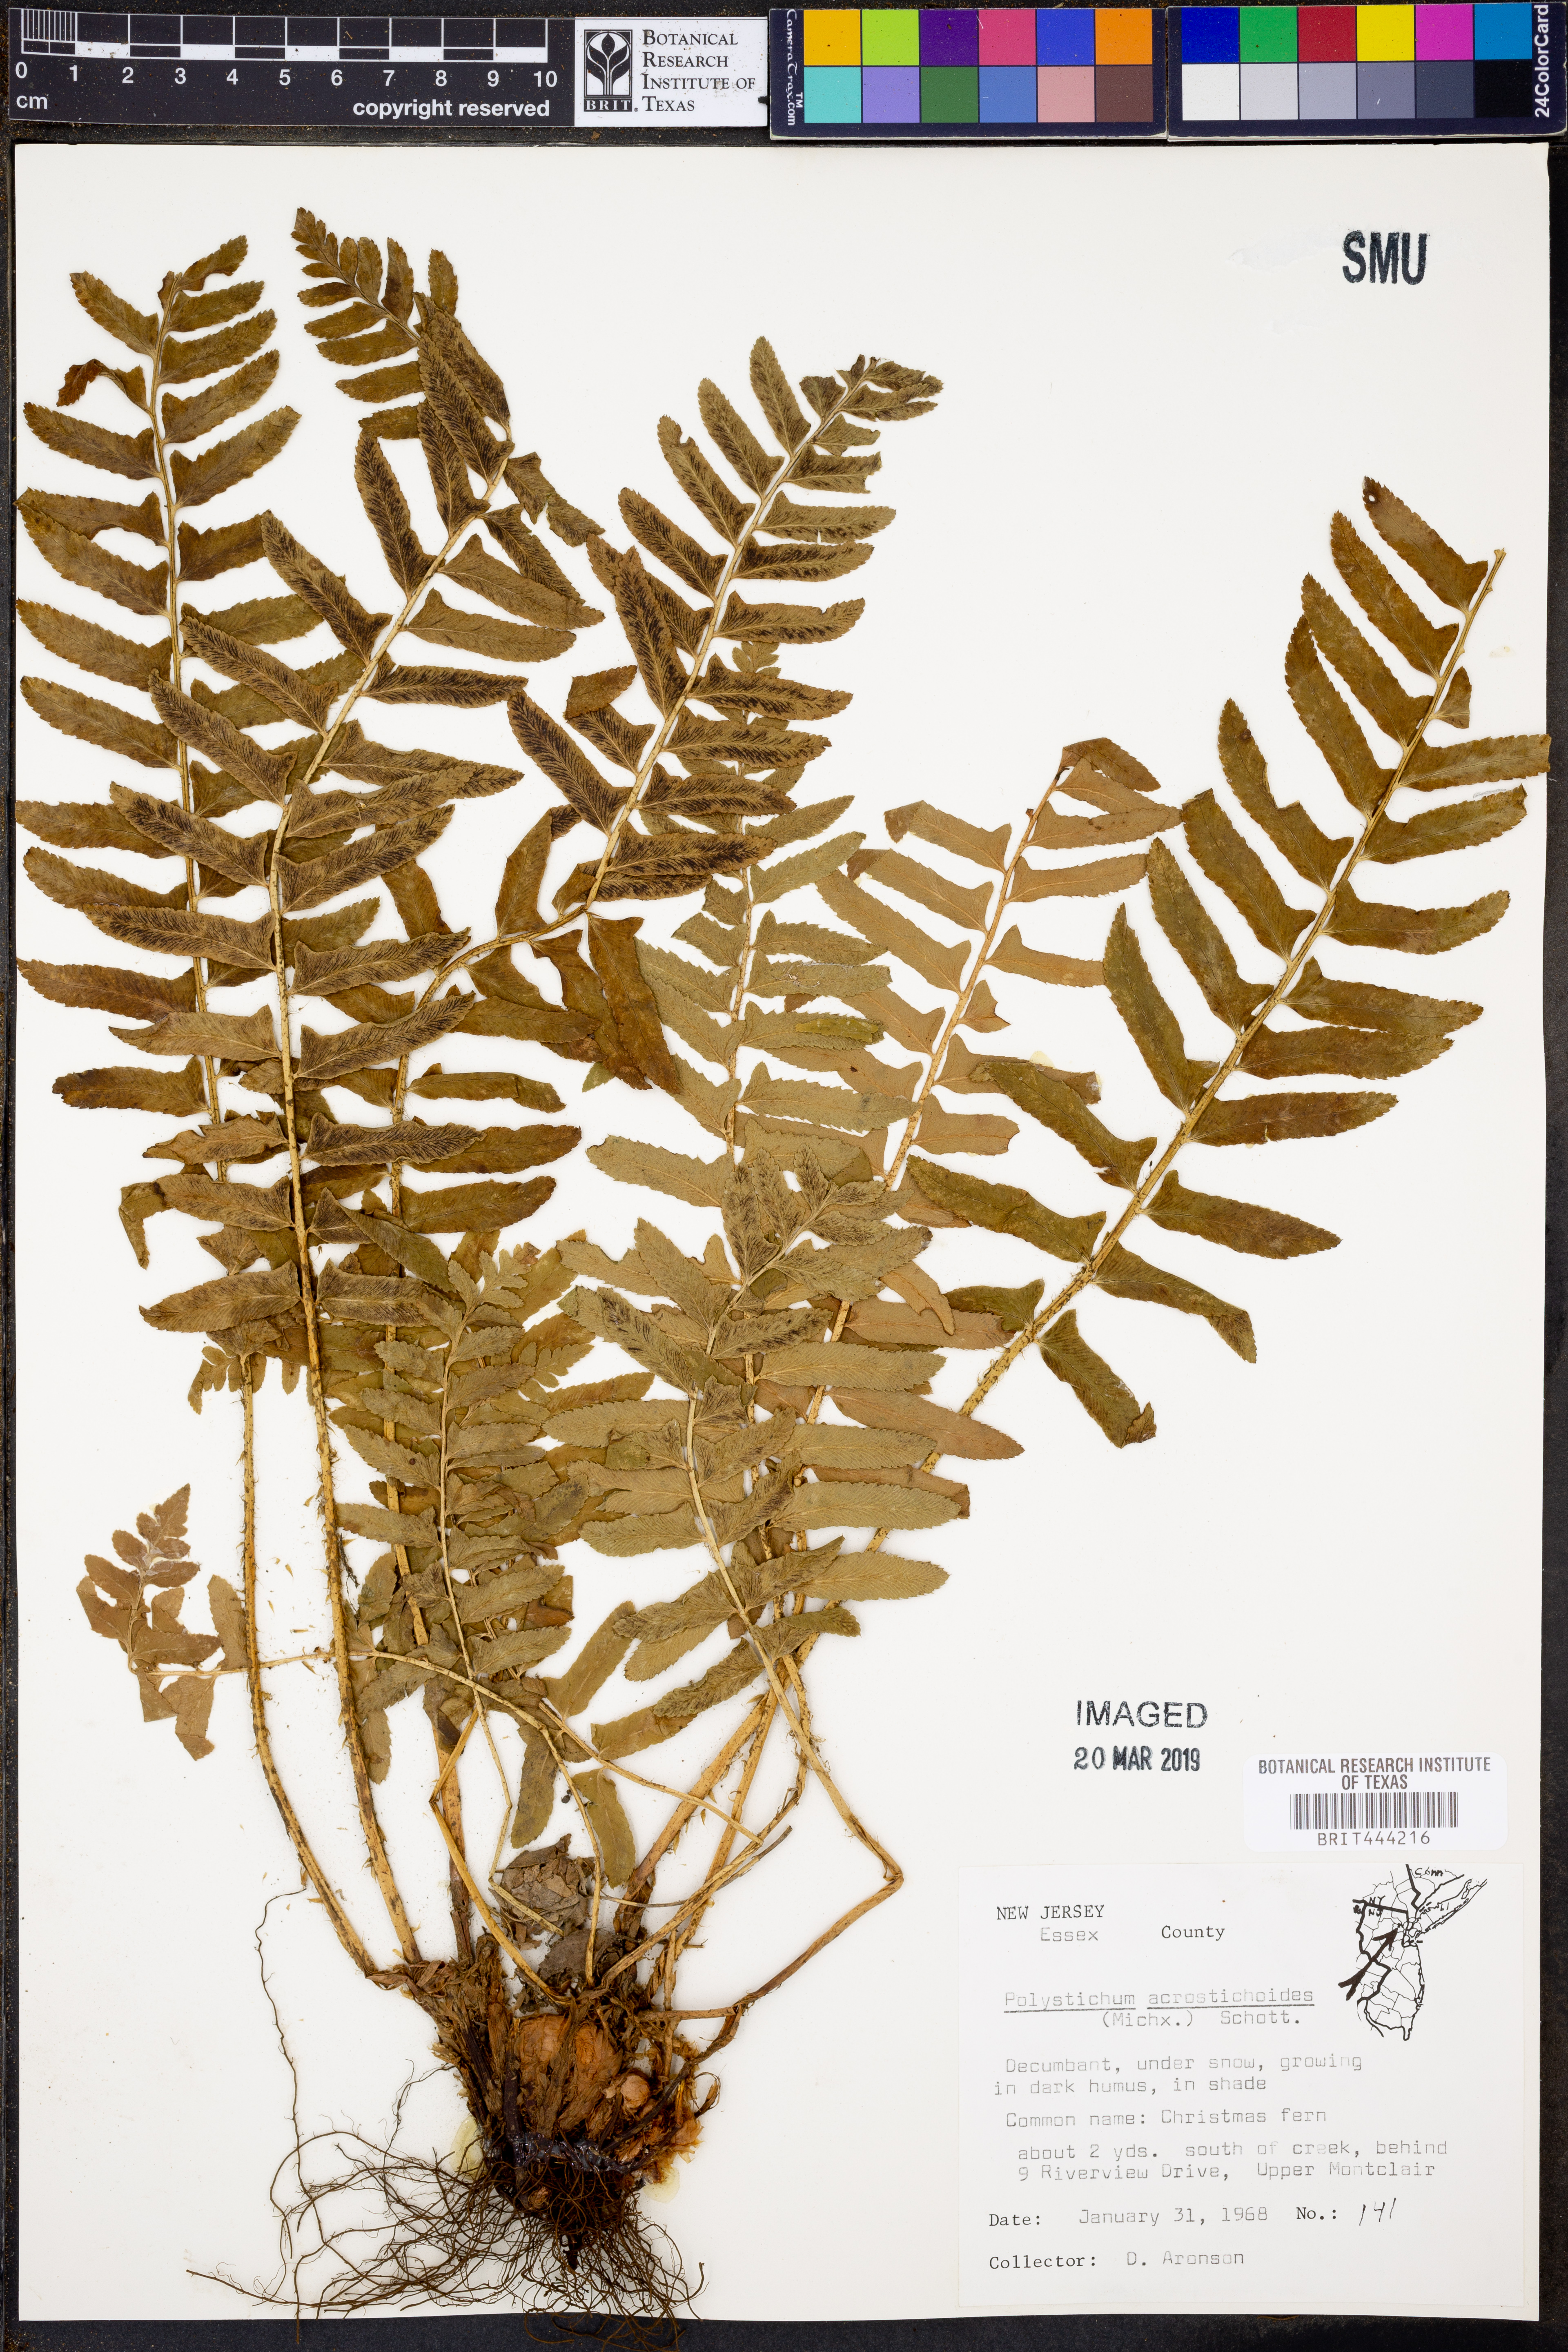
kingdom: Plantae
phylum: Tracheophyta
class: Polypodiopsida
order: Polypodiales
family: Dryopteridaceae
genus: Polystichum
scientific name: Polystichum acrostichoides
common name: Christmas fern
